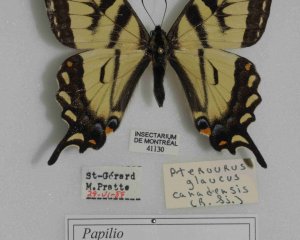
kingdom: Animalia
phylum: Arthropoda
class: Insecta
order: Lepidoptera
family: Papilionidae
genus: Pterourus
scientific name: Pterourus canadensis
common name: Canadian Tiger Swallowtail
